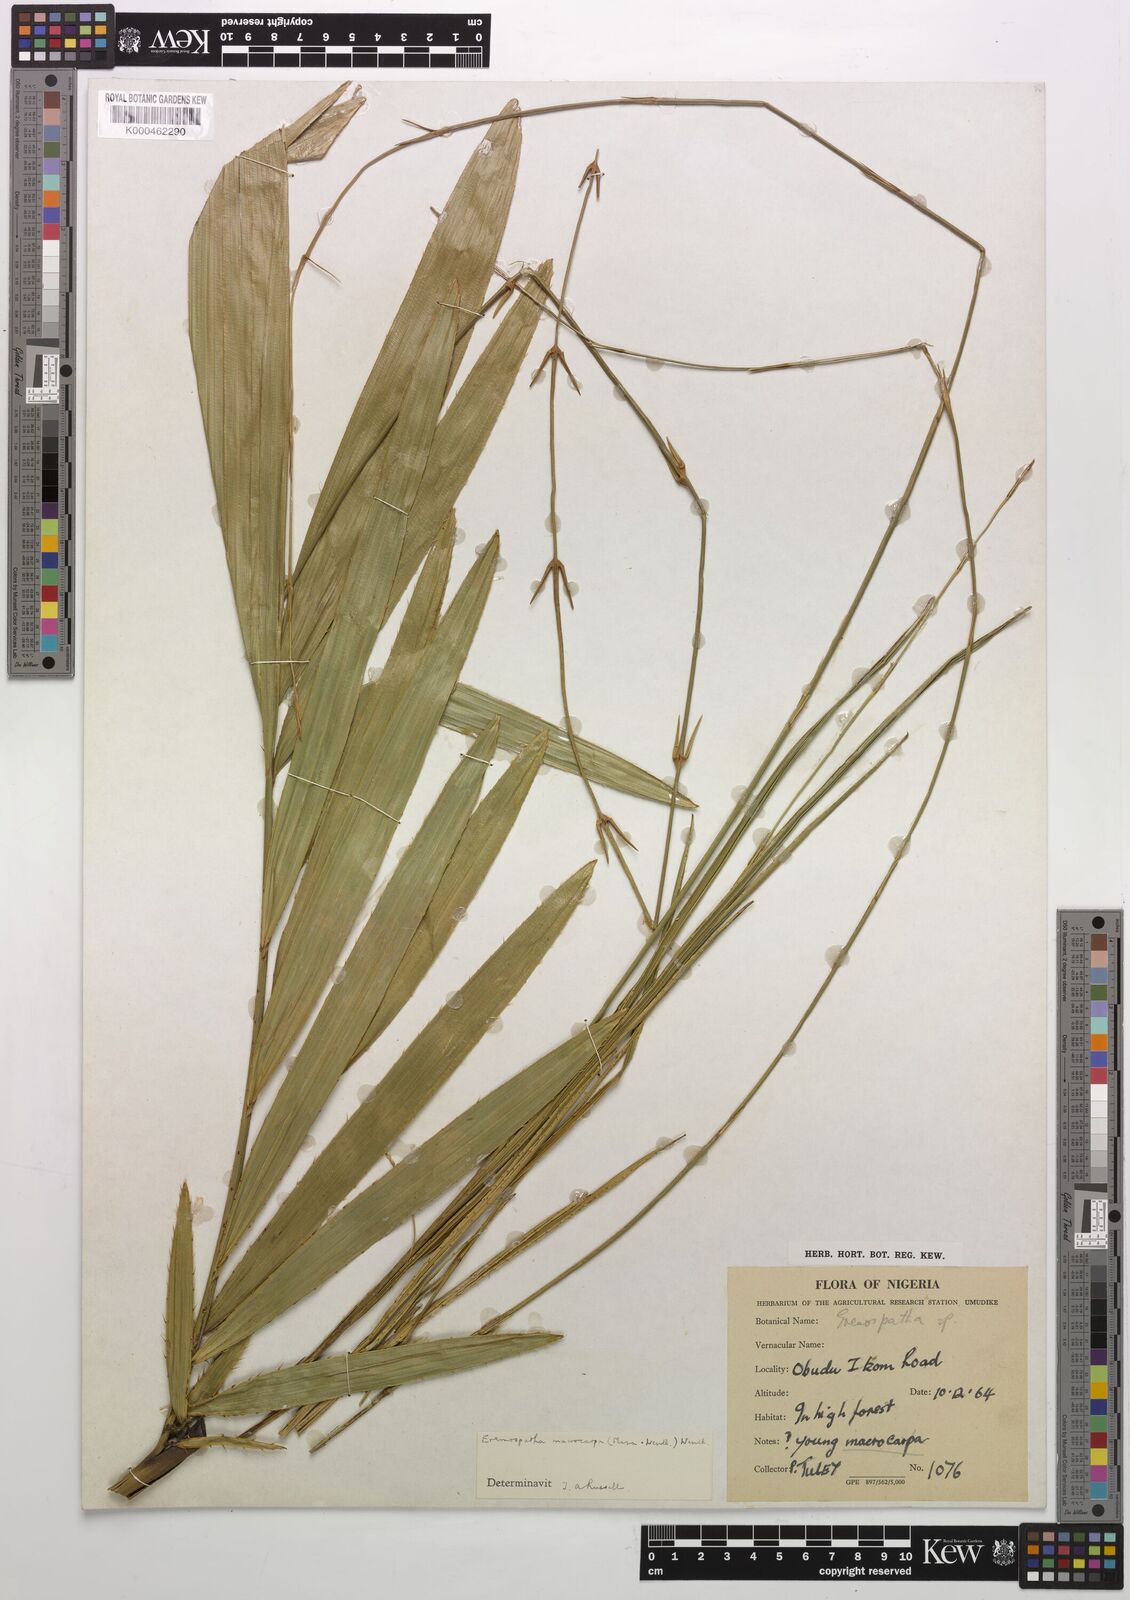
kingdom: Plantae
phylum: Tracheophyta
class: Liliopsida
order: Arecales
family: Arecaceae
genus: Eremospatha
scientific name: Eremospatha
